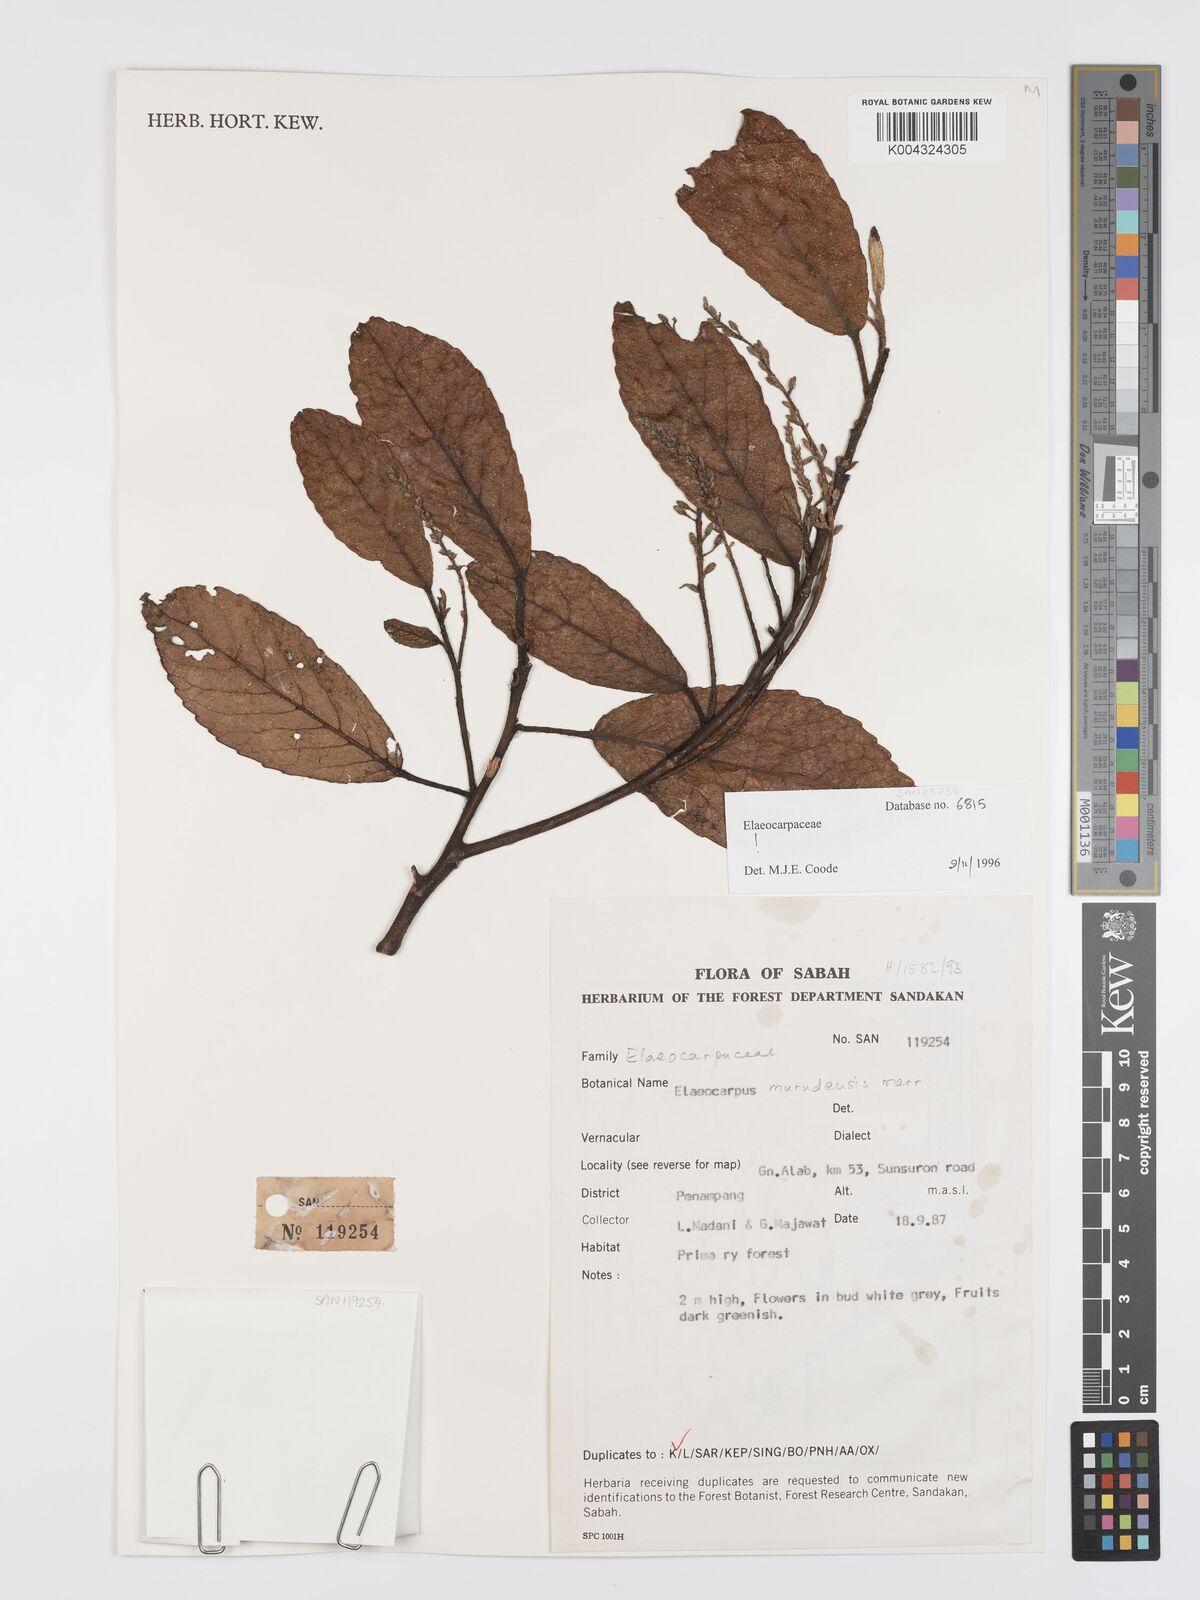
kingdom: Plantae
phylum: Tracheophyta
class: Magnoliopsida
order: Oxalidales
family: Elaeocarpaceae
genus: Elaeocarpus
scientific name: Elaeocarpus murudensis
